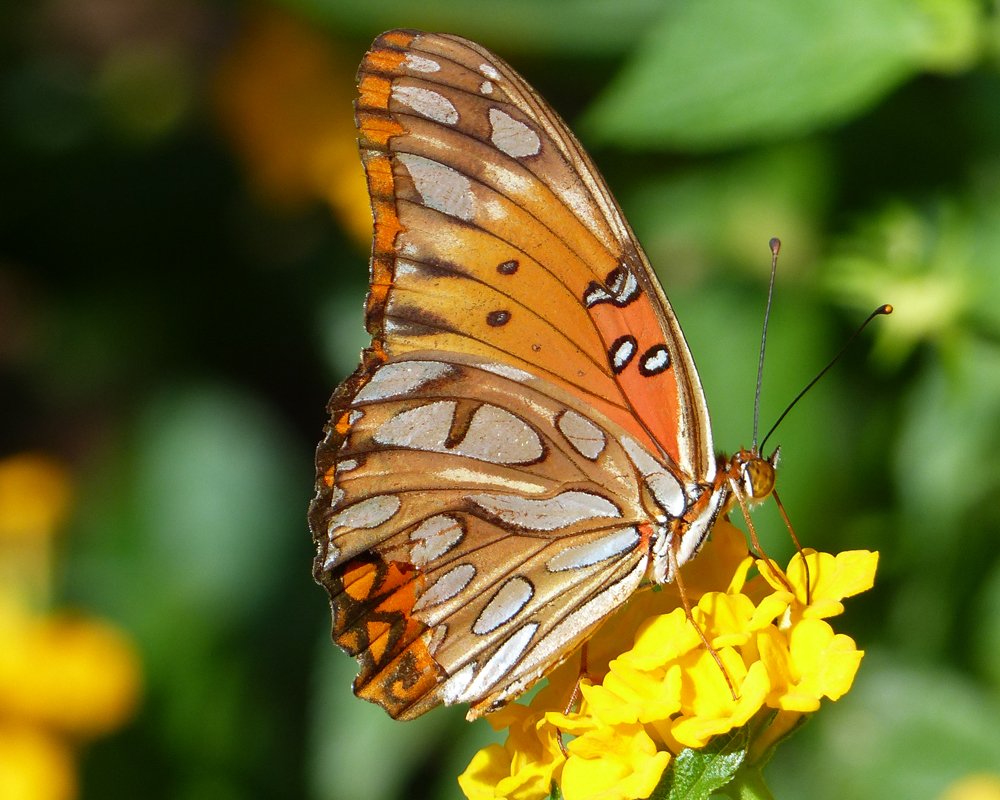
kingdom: Animalia
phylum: Arthropoda
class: Insecta
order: Lepidoptera
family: Nymphalidae
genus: Dione
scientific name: Dione vanillae
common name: Gulf Fritillary
